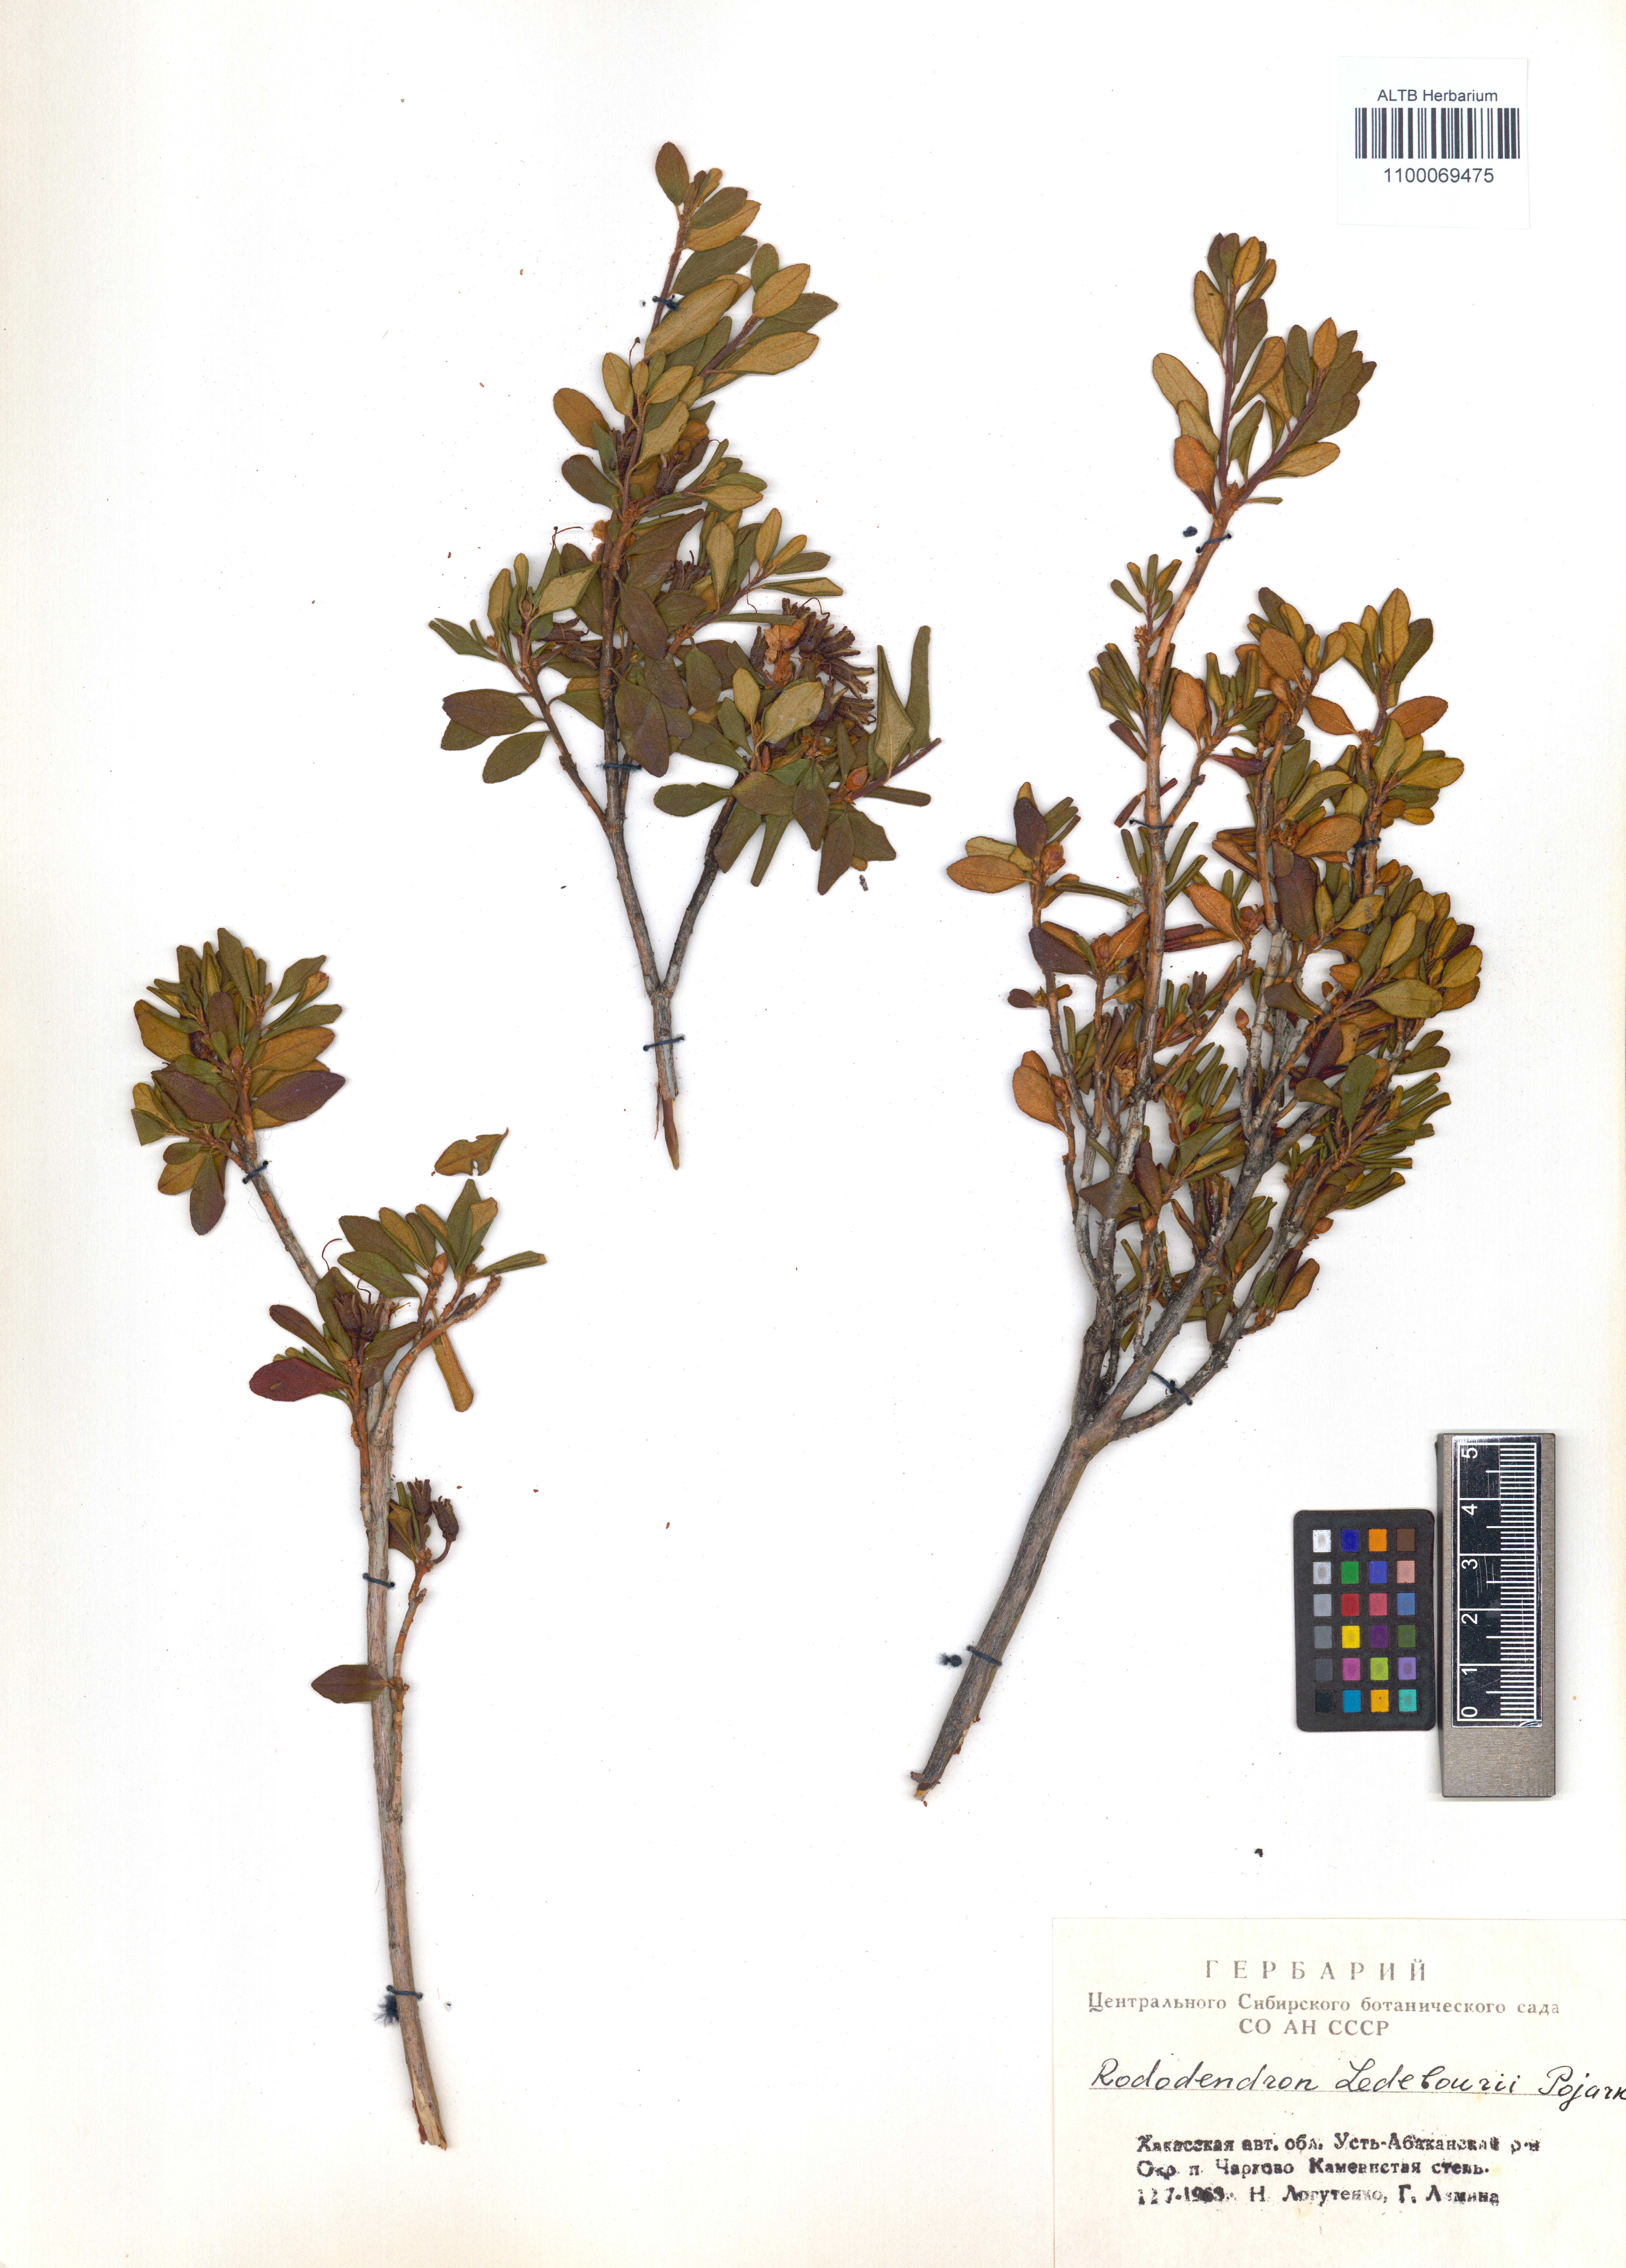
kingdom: Plantae
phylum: Tracheophyta
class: Magnoliopsida
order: Ericales
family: Ericaceae
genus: Rhododendron
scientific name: Rhododendron dauricum
